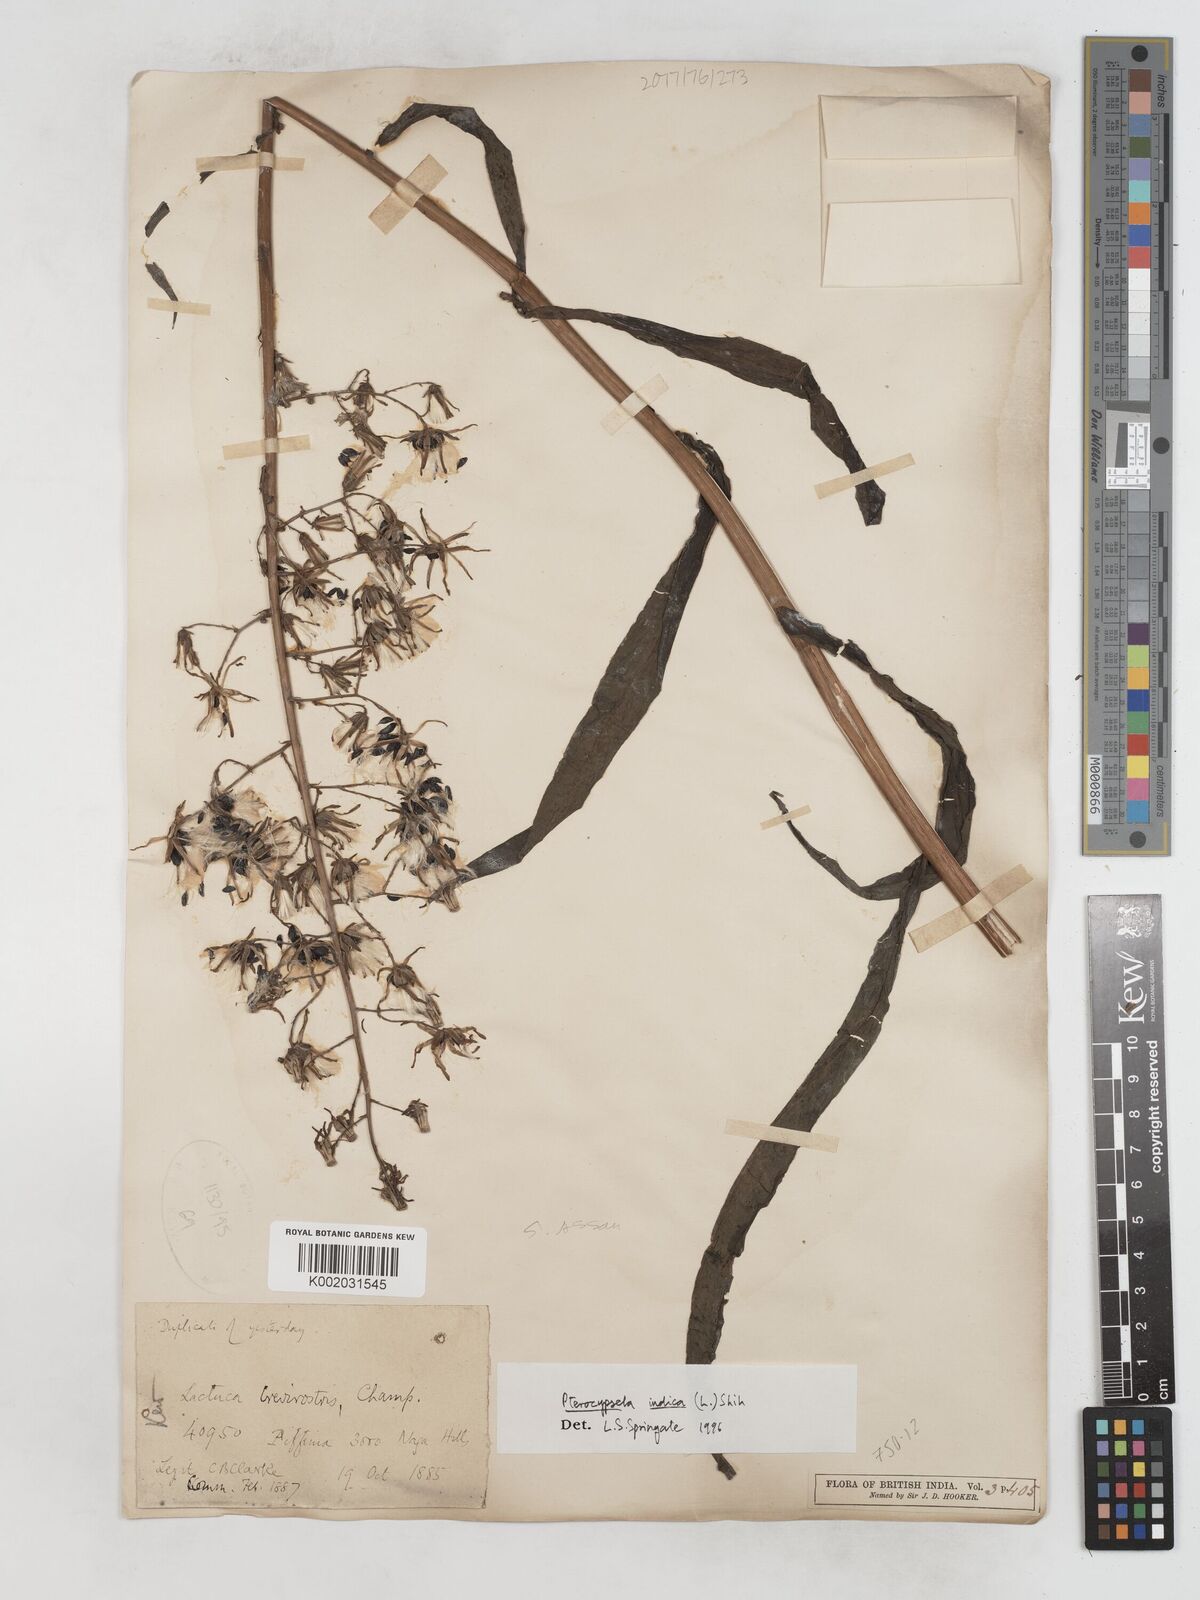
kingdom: Plantae
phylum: Tracheophyta
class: Magnoliopsida
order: Asterales
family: Asteraceae
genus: Lactuca
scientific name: Lactuca indica
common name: Wild lettuce
